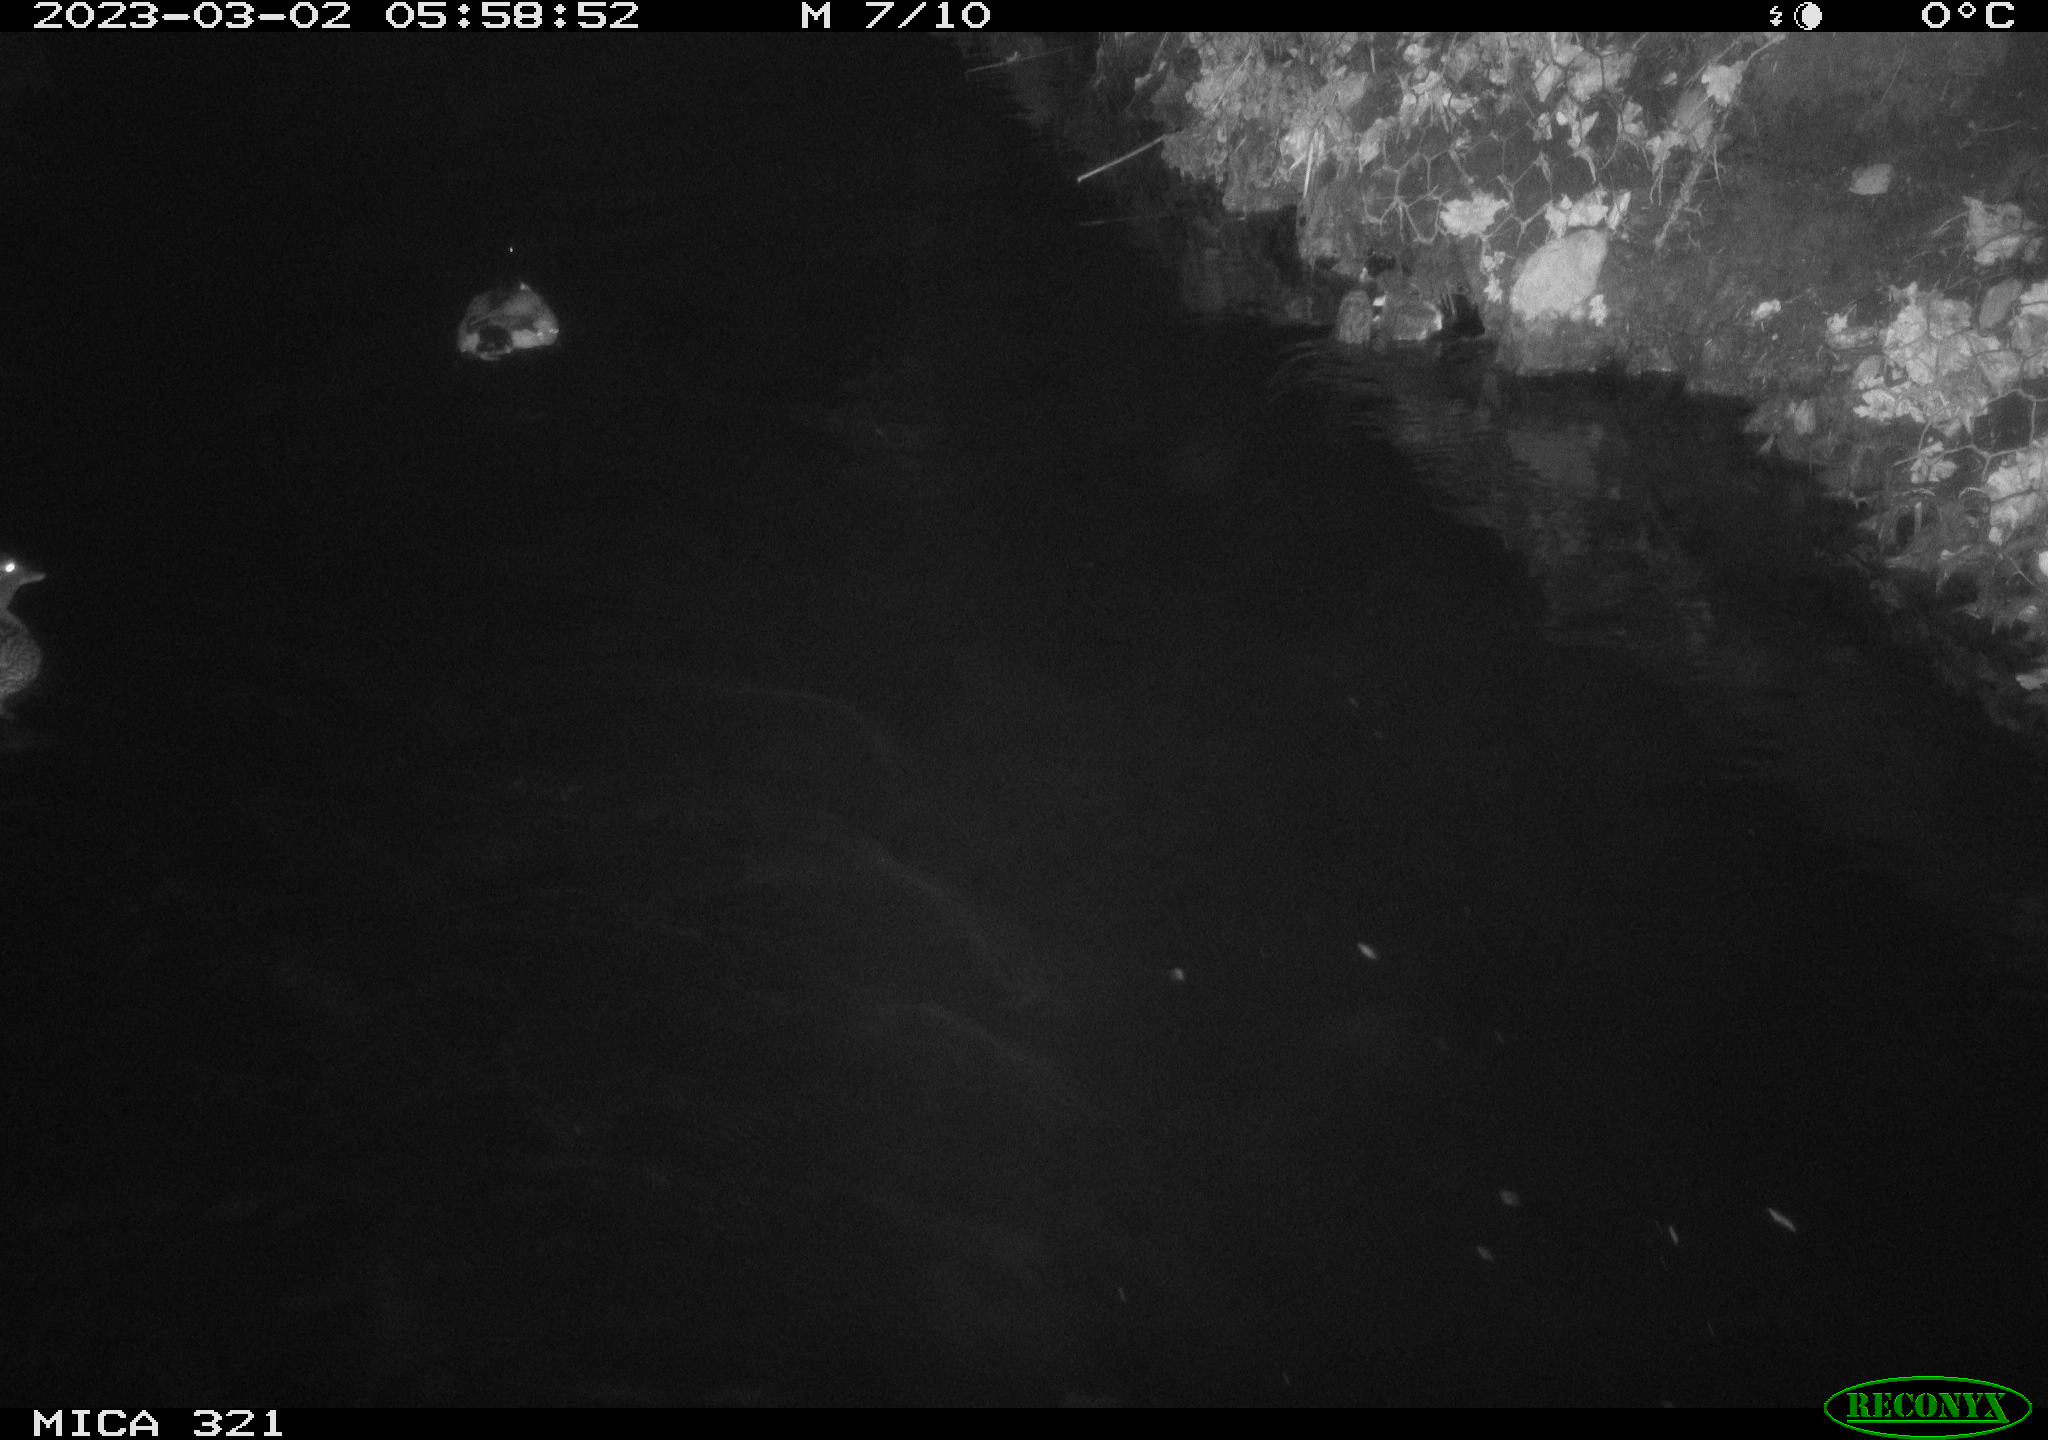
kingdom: Animalia
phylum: Chordata
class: Aves
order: Anseriformes
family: Anatidae
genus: Anas
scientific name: Anas
